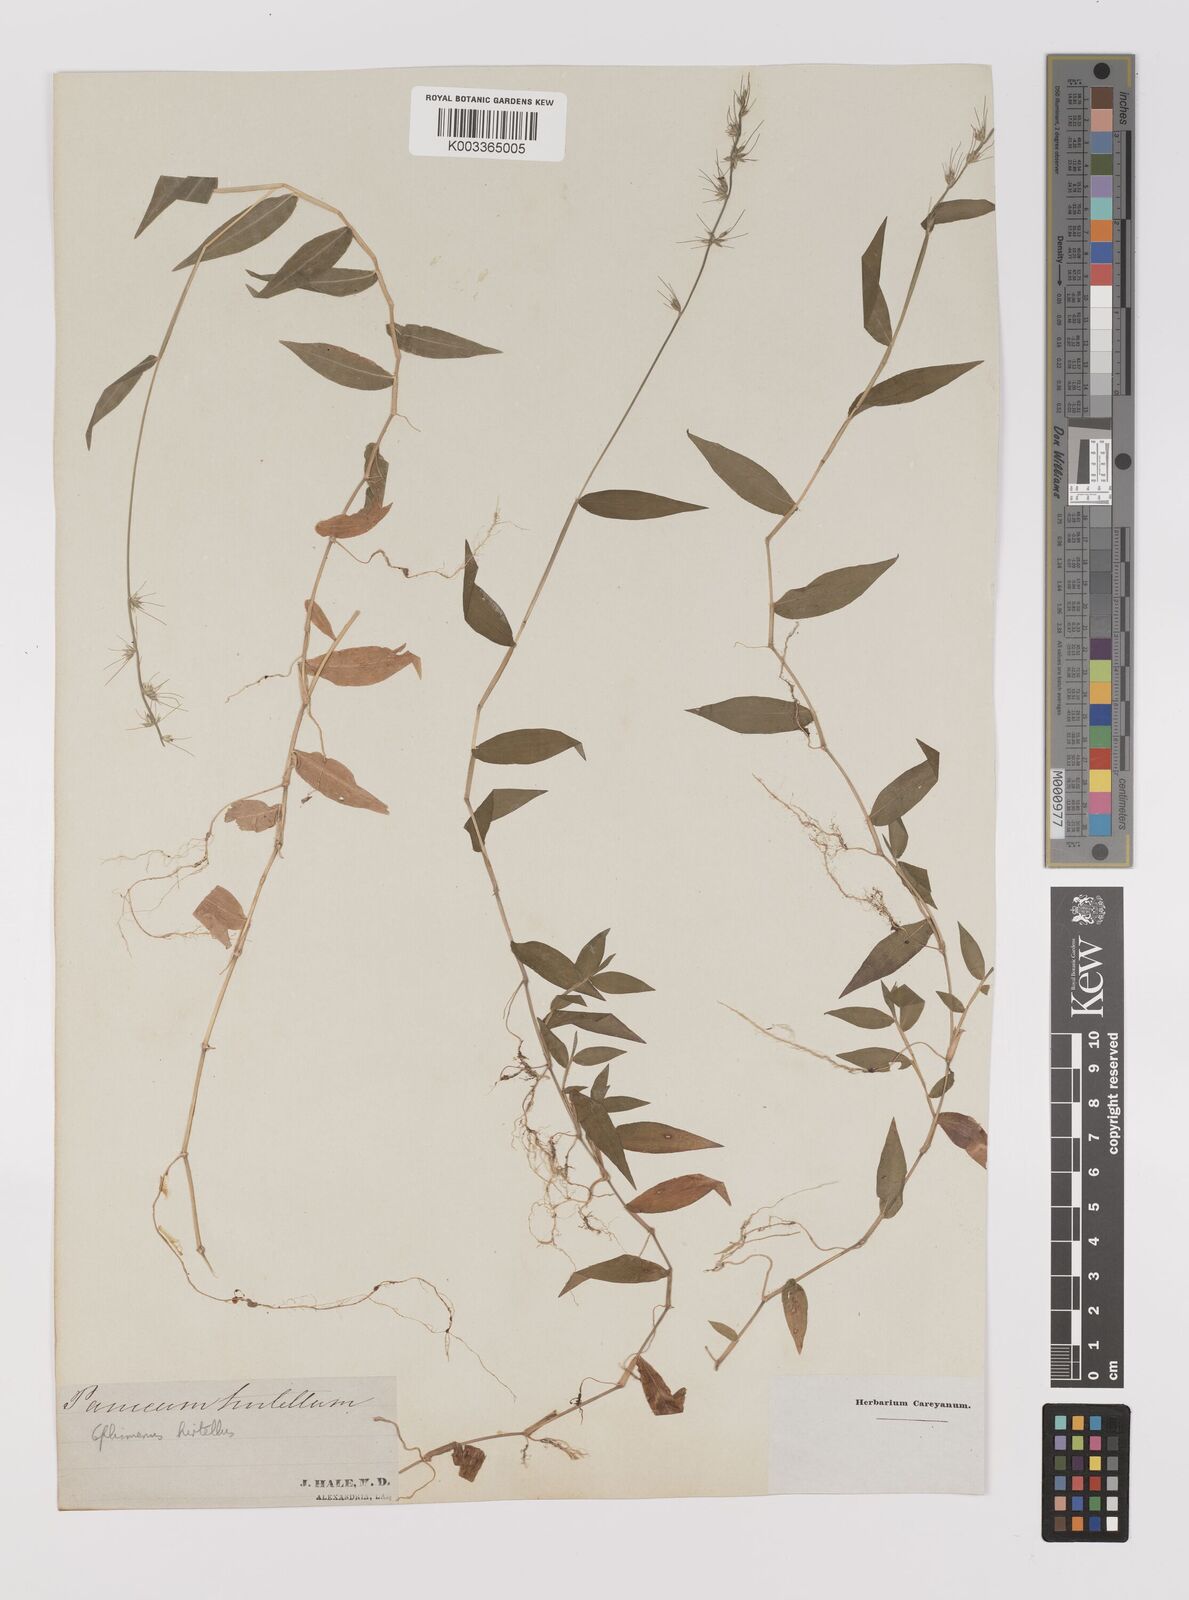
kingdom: Plantae
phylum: Tracheophyta
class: Liliopsida
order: Poales
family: Poaceae
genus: Oplismenus
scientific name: Oplismenus undulatifolius
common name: Wavyleaf basketgrass
